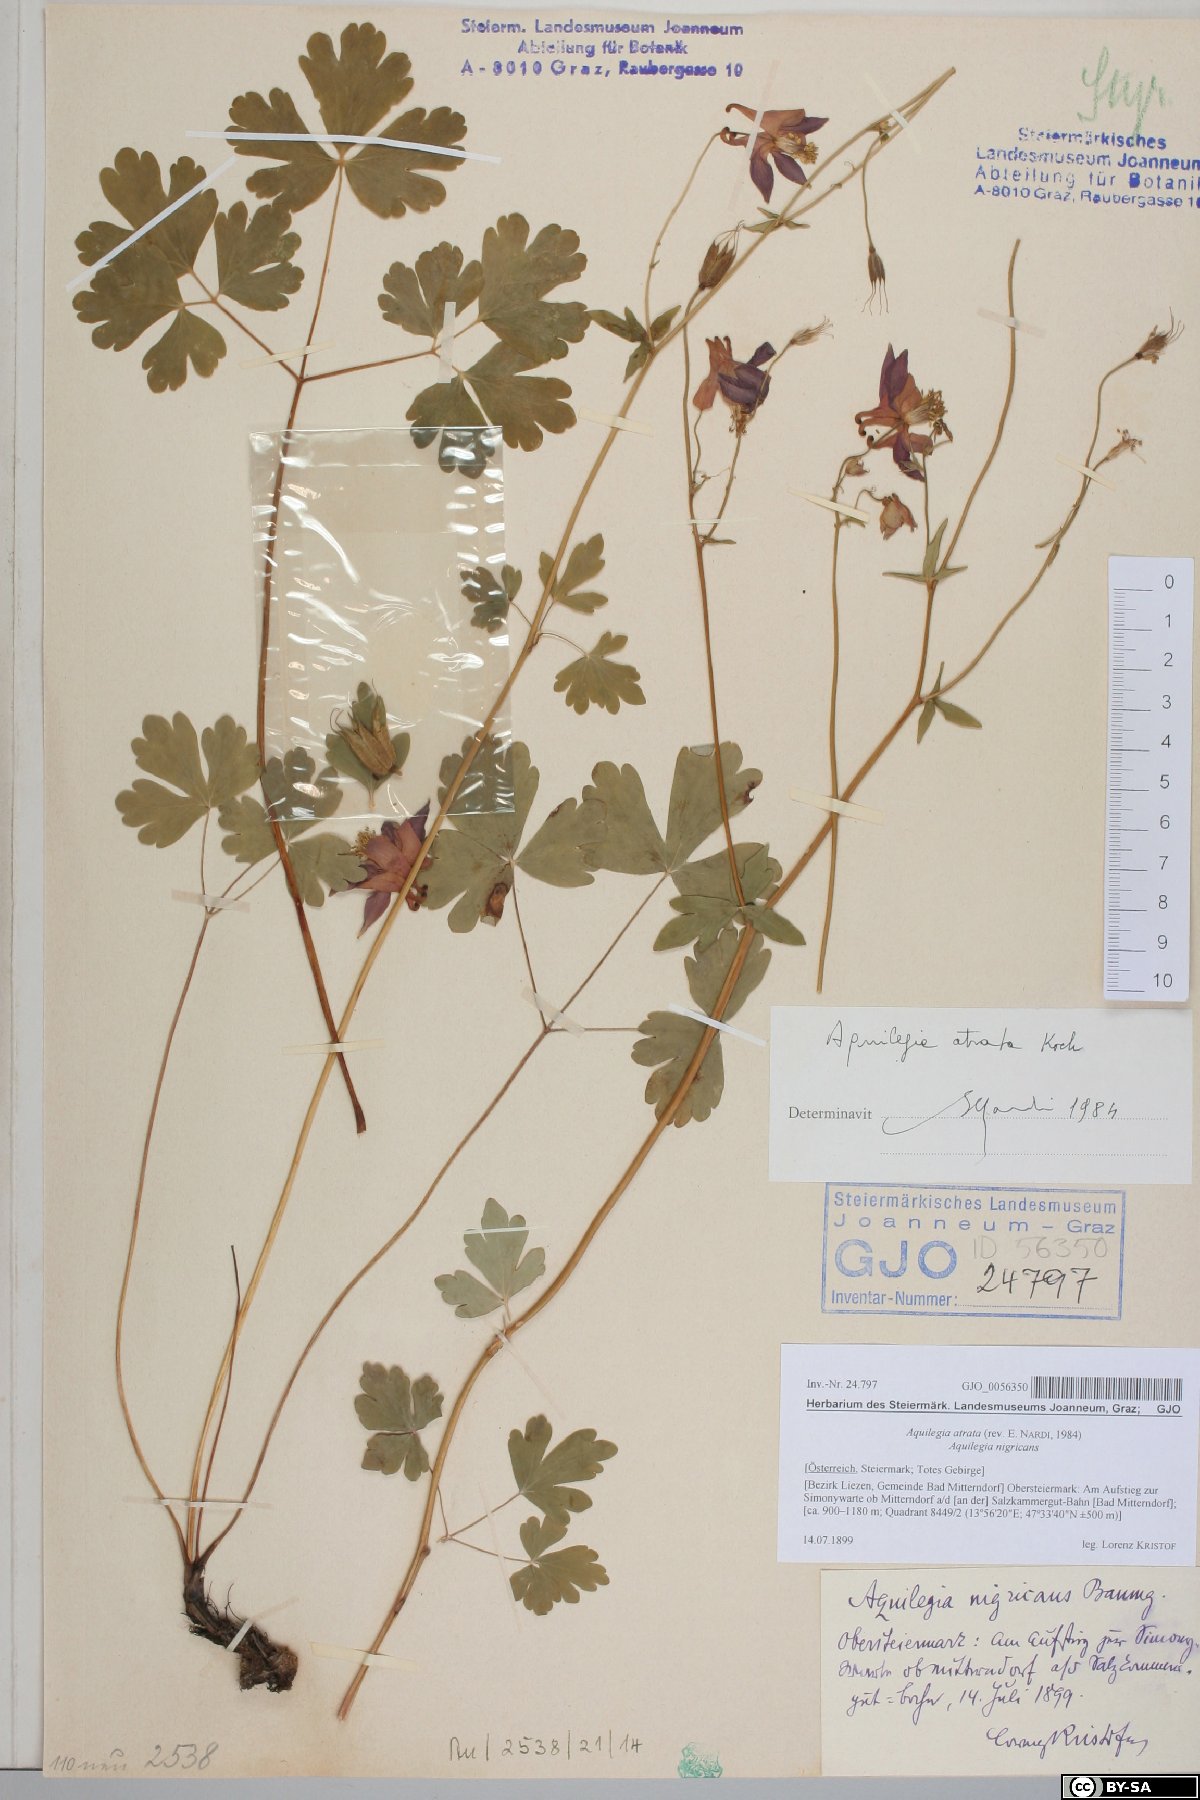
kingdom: Plantae
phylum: Tracheophyta
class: Magnoliopsida
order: Ranunculales
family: Ranunculaceae
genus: Aquilegia
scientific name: Aquilegia atrata
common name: Dark columbine
